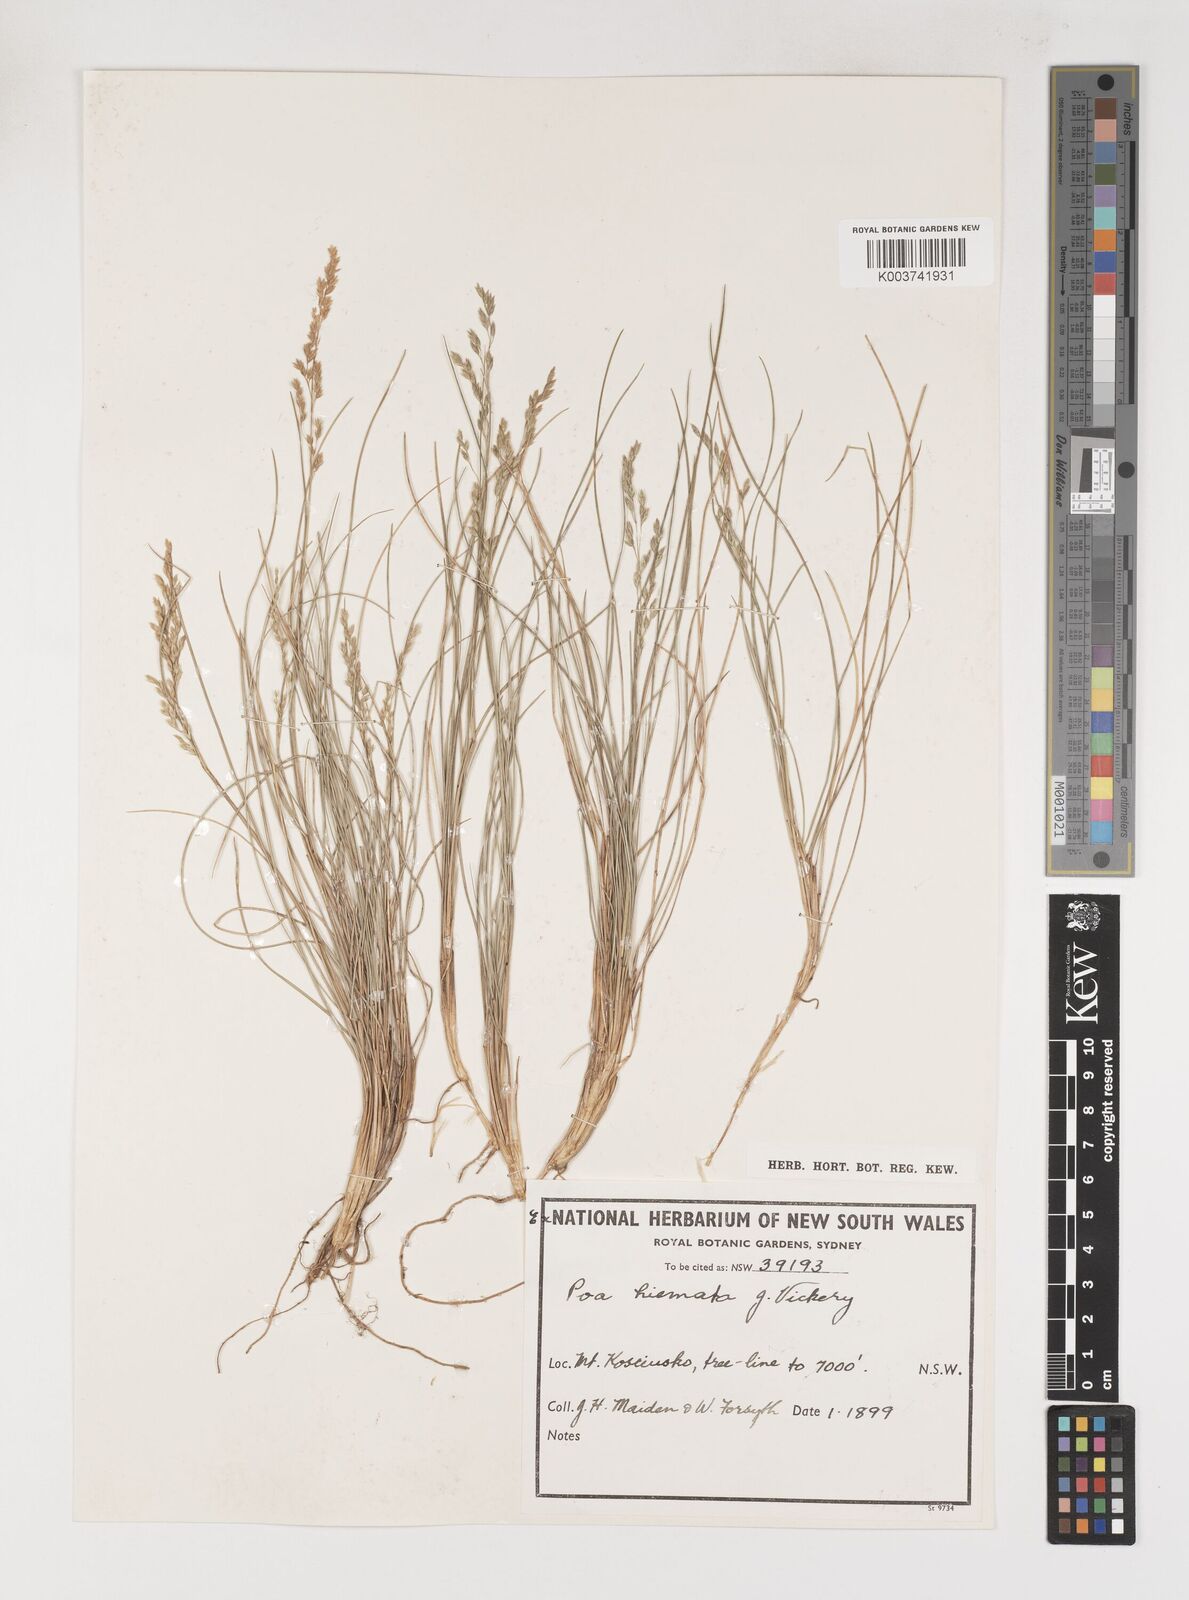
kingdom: Plantae
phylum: Tracheophyta
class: Liliopsida
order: Poales
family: Poaceae
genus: Poa
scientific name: Poa hiemata
